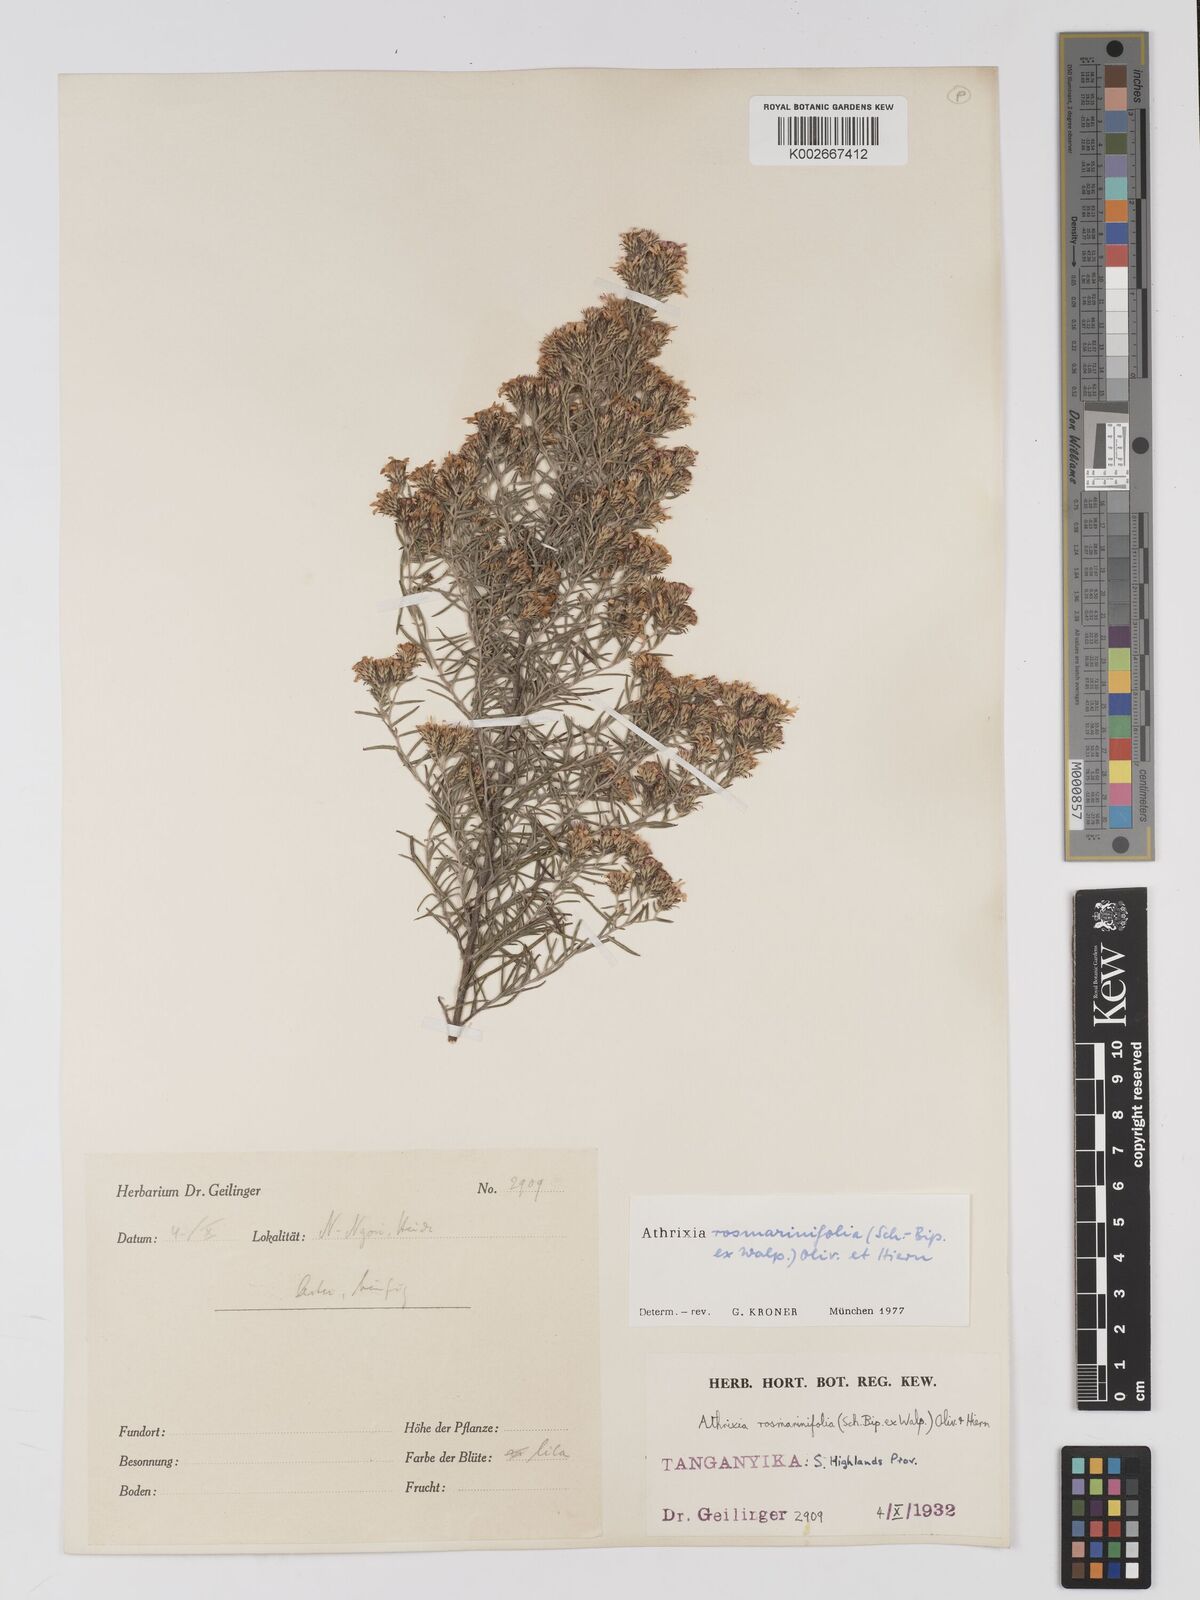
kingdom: Plantae
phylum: Tracheophyta
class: Magnoliopsida
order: Asterales
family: Asteraceae
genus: Athrixia
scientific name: Athrixia rosmarinifolia
